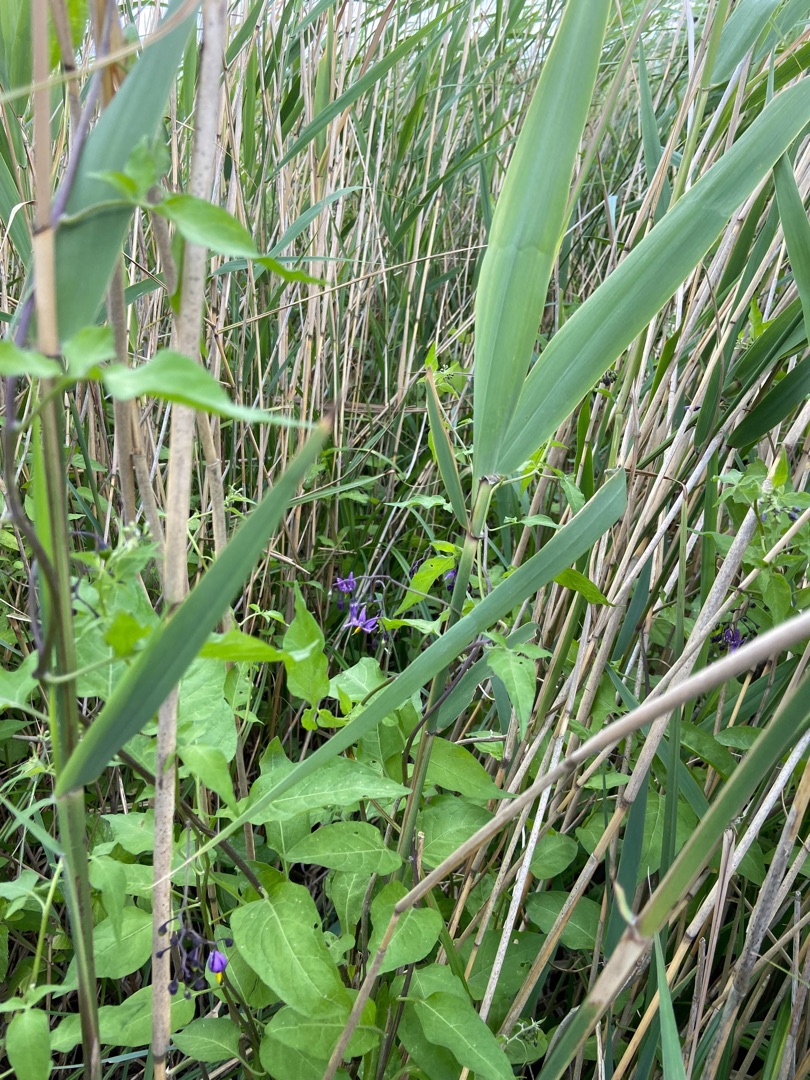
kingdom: Plantae
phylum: Tracheophyta
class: Magnoliopsida
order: Solanales
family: Solanaceae
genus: Solanum
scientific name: Solanum dulcamara
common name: Bittersød natskygge
